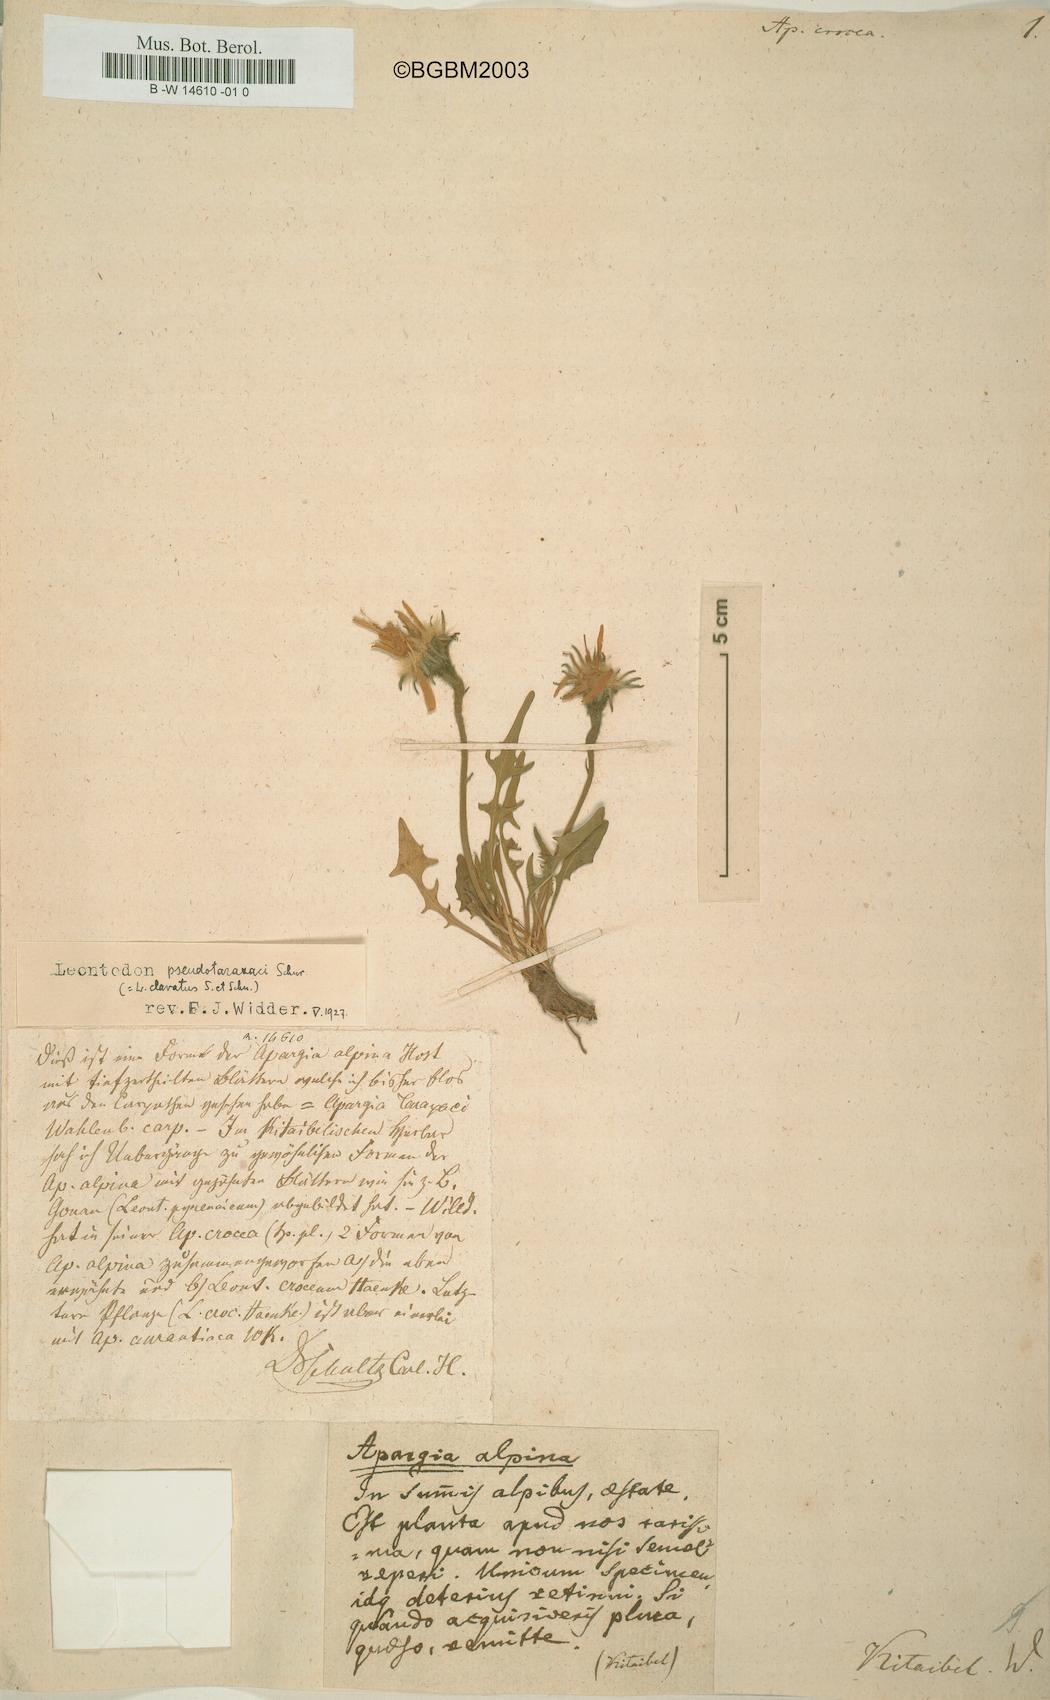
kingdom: Plantae
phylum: Tracheophyta
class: Magnoliopsida
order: Asterales
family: Asteraceae
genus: Scorzoneroides
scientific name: Scorzoneroides
